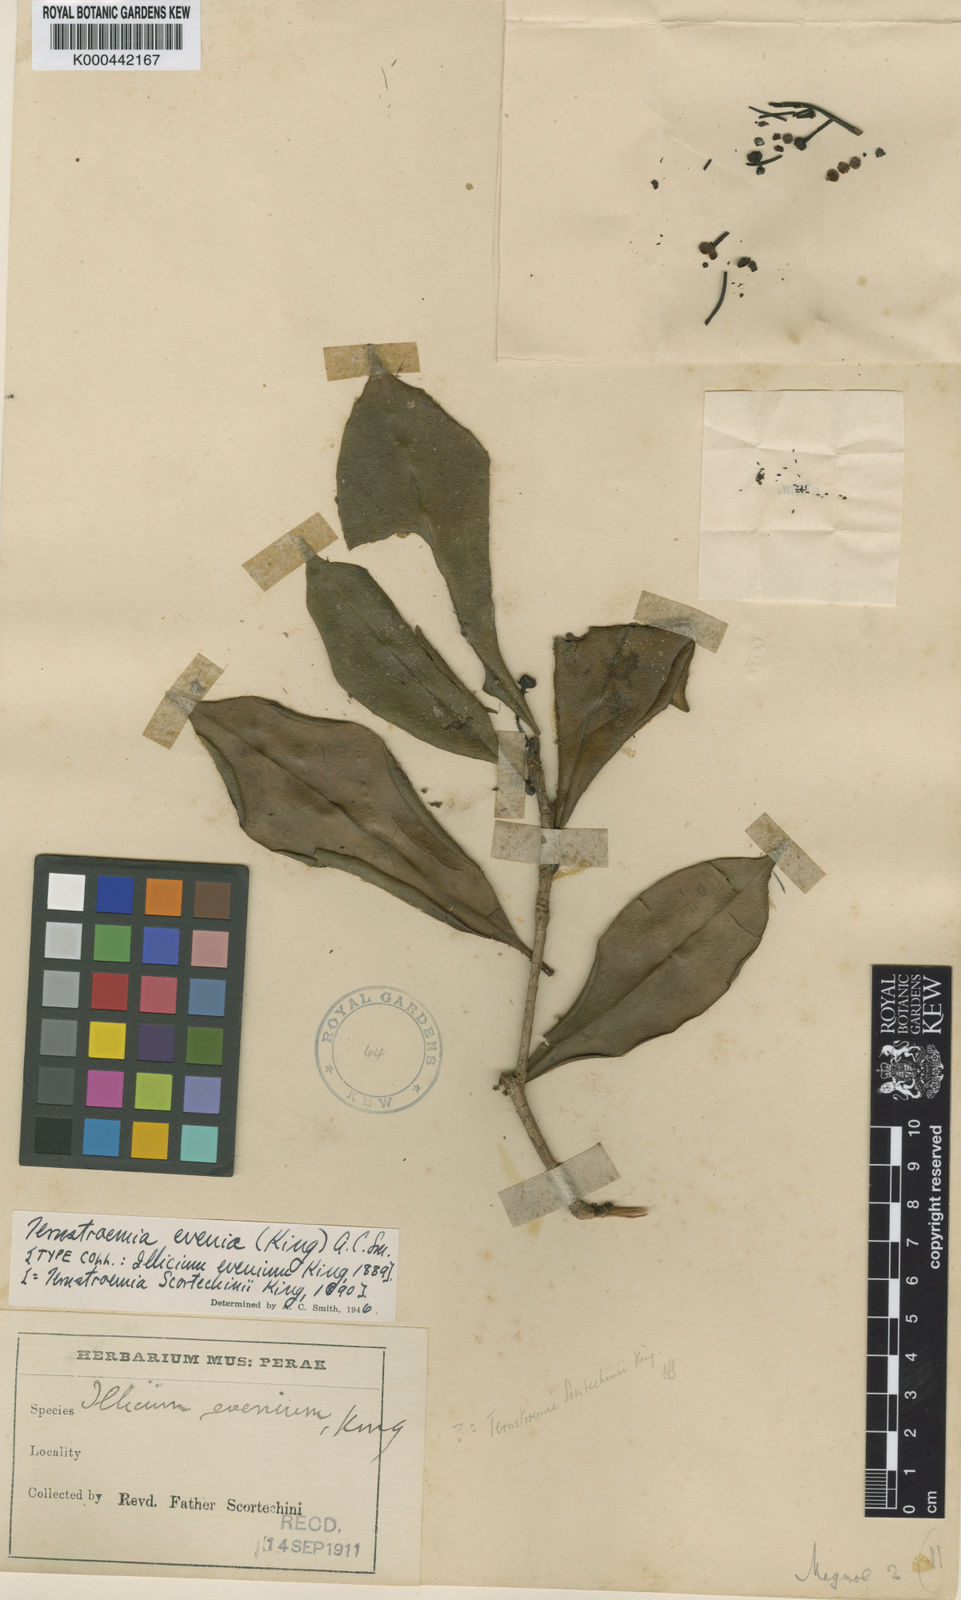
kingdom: Plantae
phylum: Tracheophyta
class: Magnoliopsida
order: Ericales
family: Pentaphylacaceae
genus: Ternstroemia
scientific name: Ternstroemia evenia
